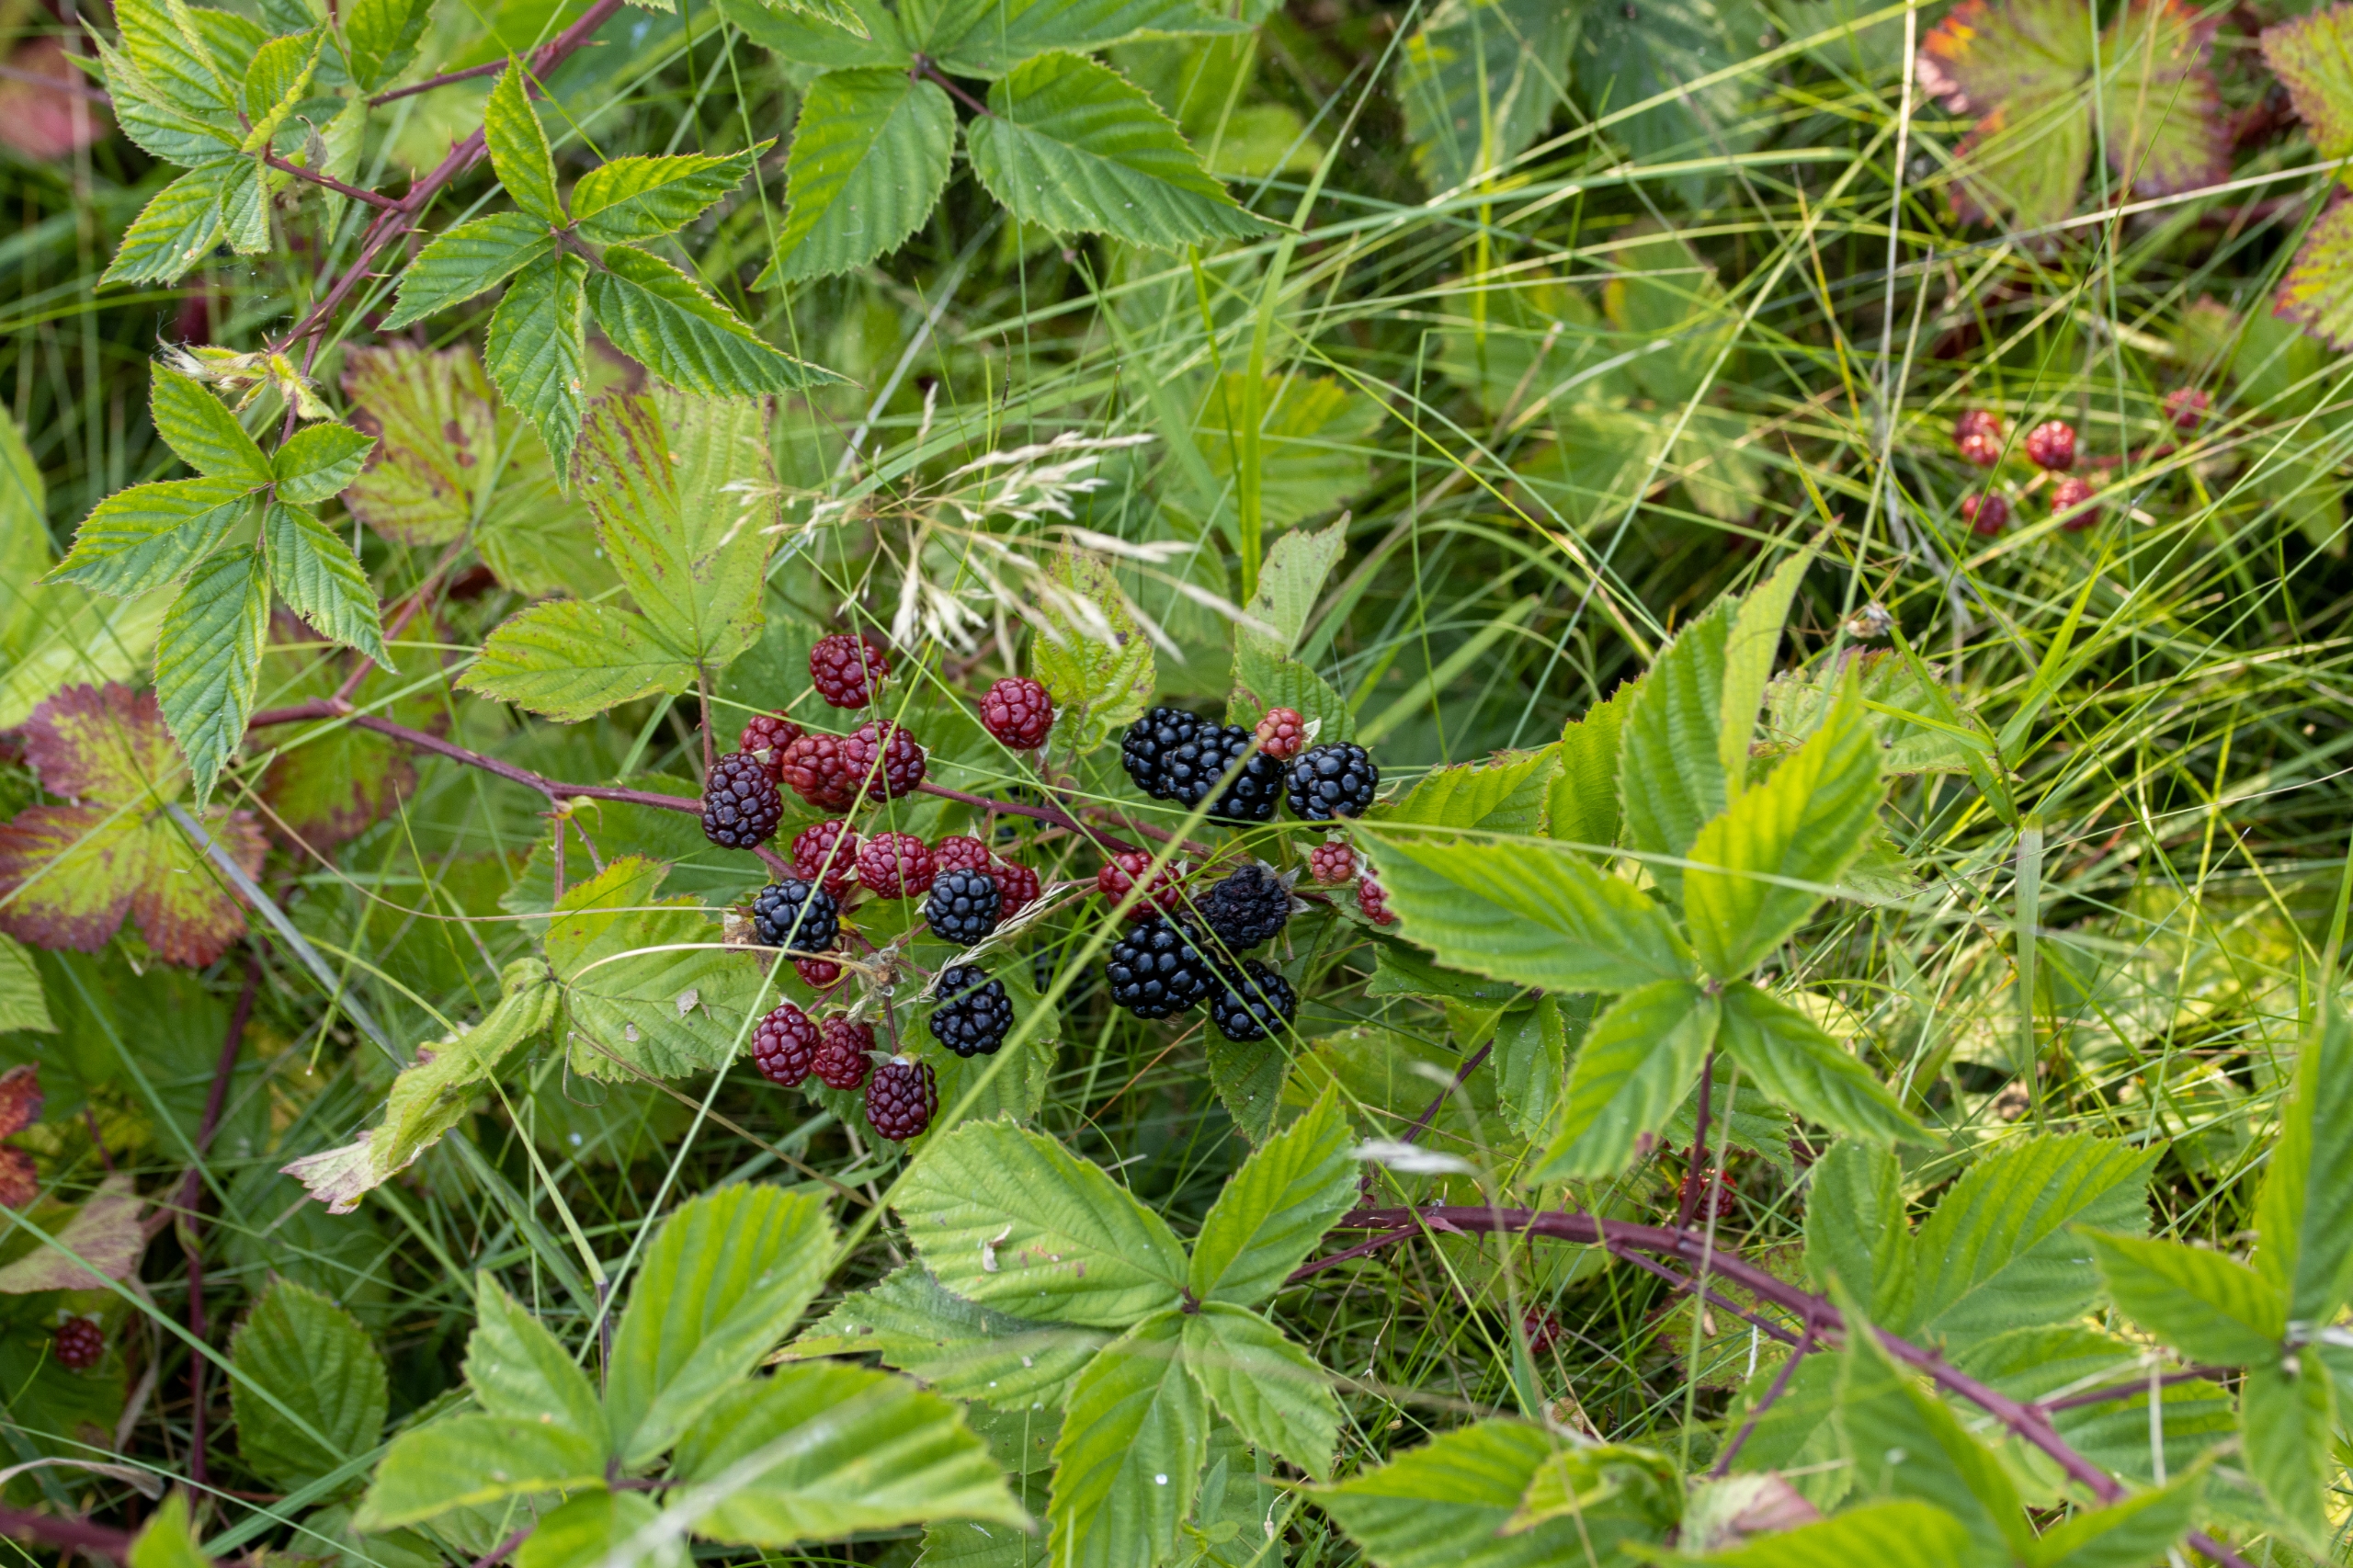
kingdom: Plantae
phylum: Tracheophyta
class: Magnoliopsida
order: Rosales
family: Rosaceae
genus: Rubus
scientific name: Rubus plicatus
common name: Almindelig brombær
